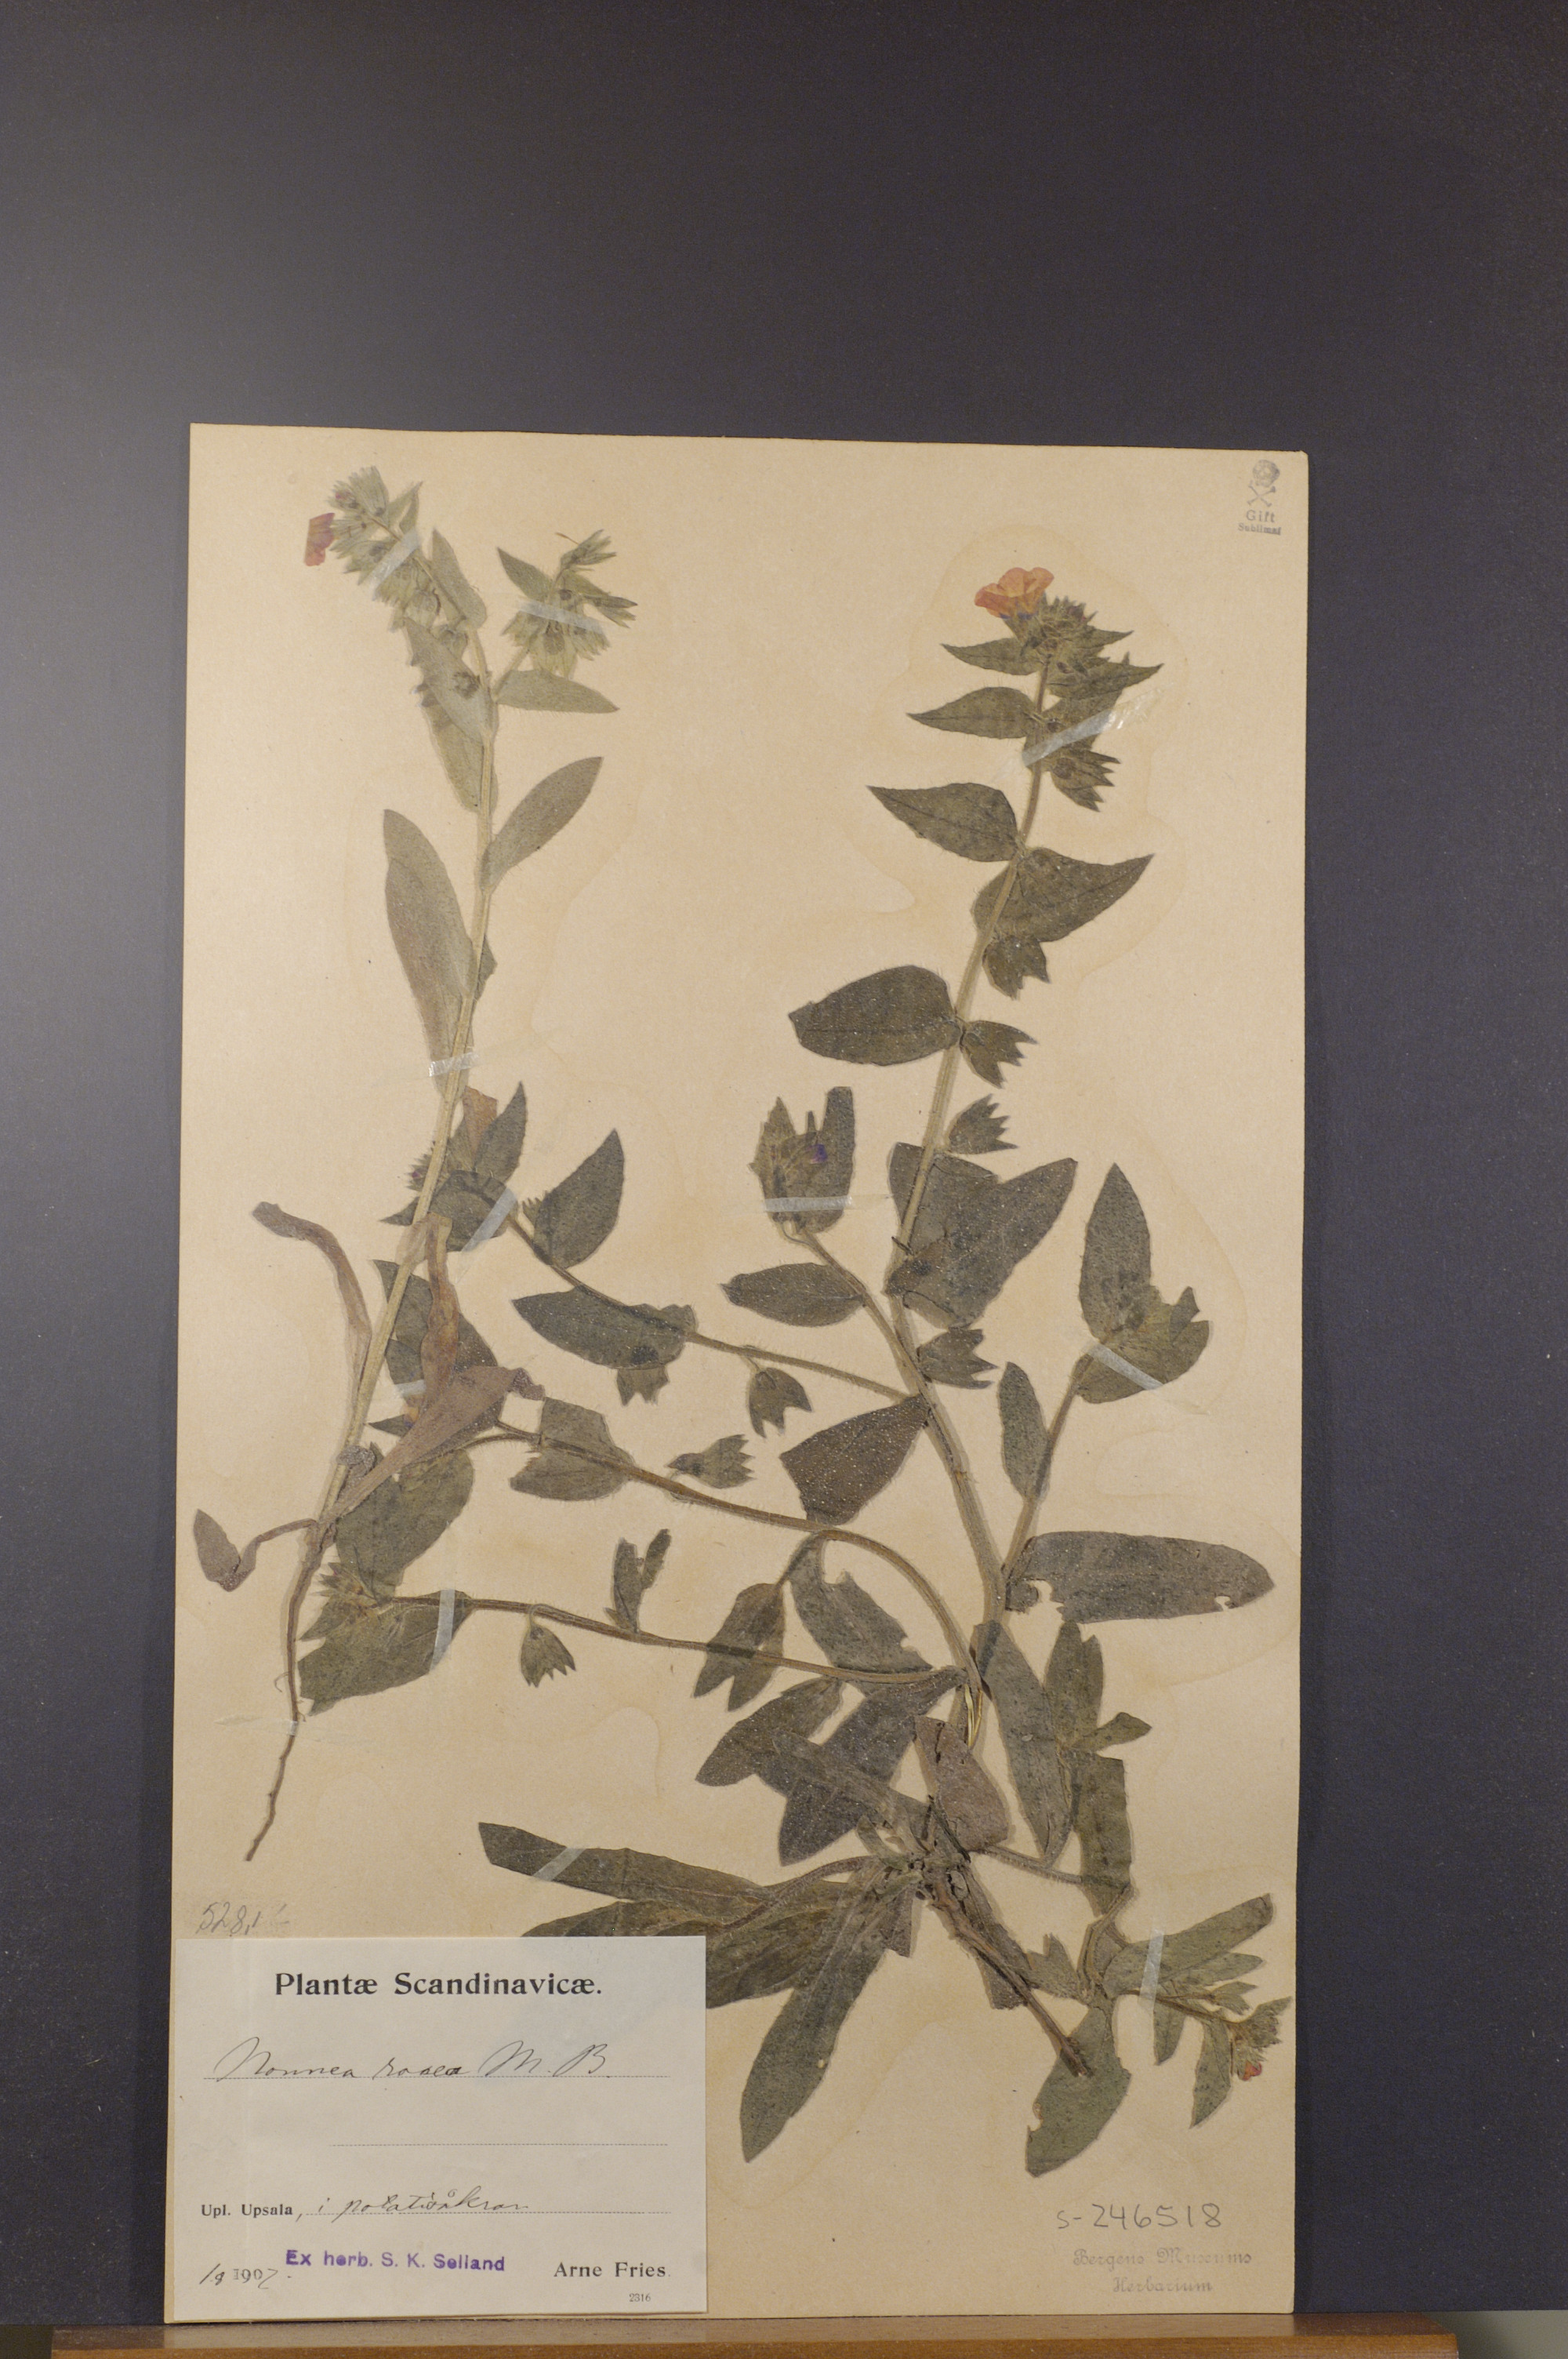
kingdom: Plantae
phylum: Tracheophyta
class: Magnoliopsida
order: Boraginales
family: Boraginaceae
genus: Nonea
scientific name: Nonea versicolor
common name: Varied monkswort
